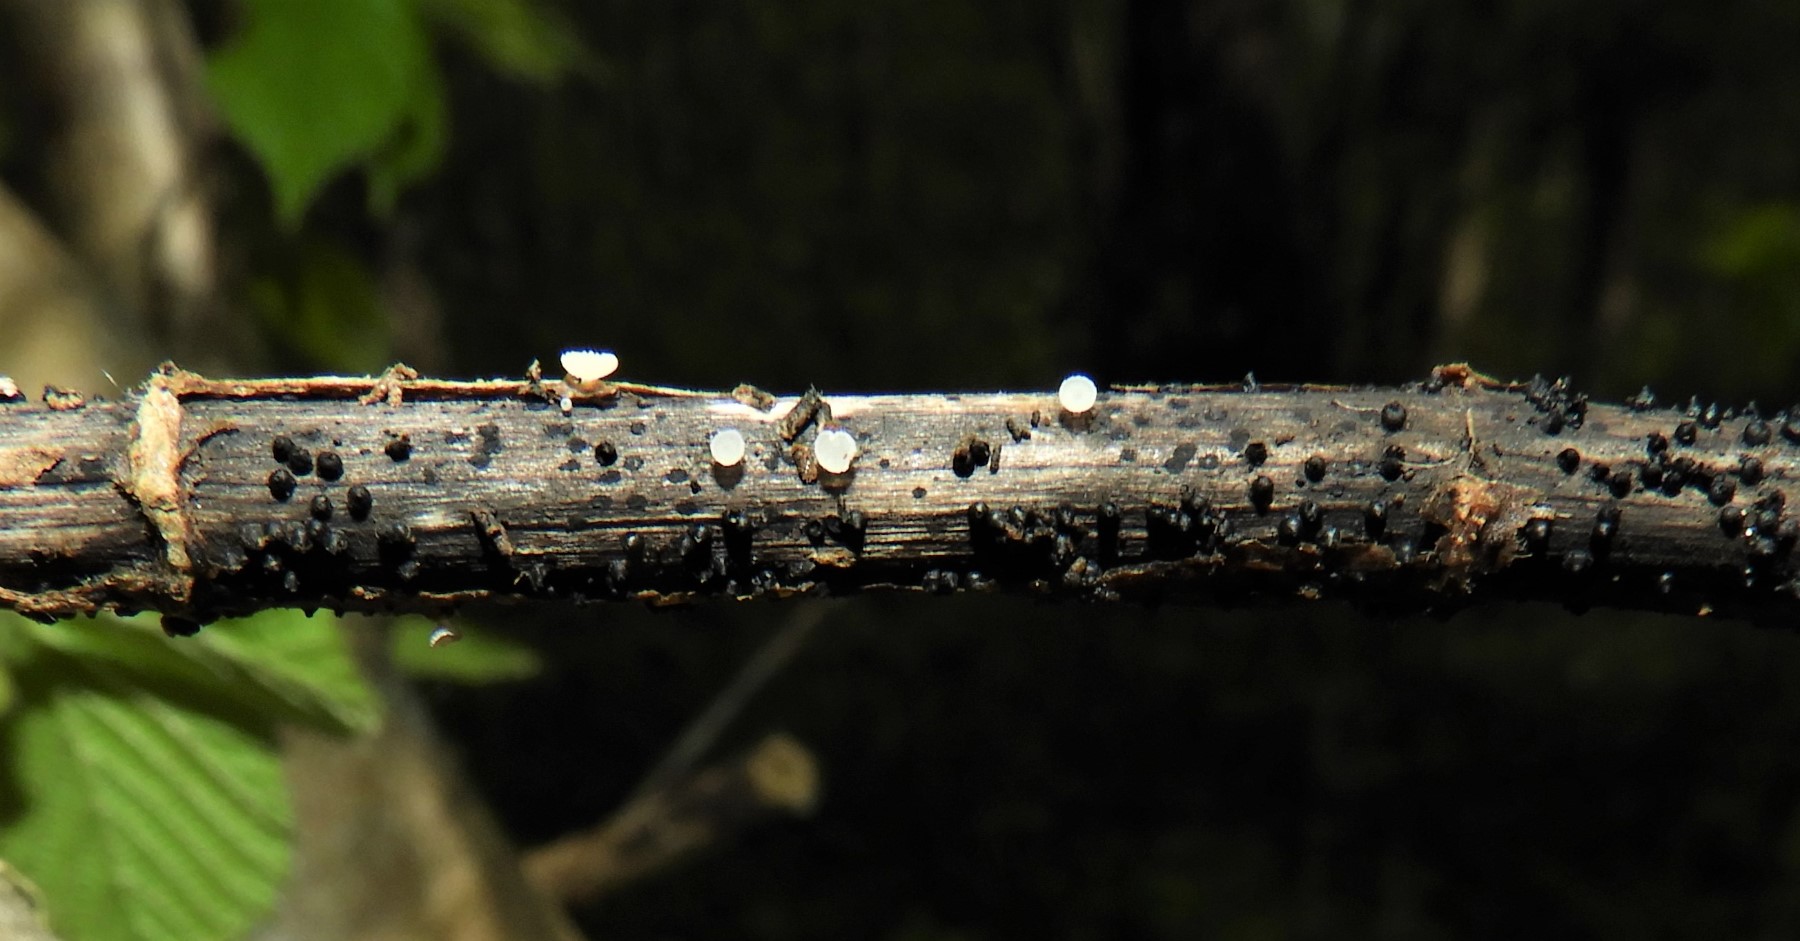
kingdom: Fungi
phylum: Ascomycota
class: Leotiomycetes
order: Helotiales
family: Helotiaceae
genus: Cyathicula
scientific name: Cyathicula cyathoidea
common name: pokal-stilkskive
